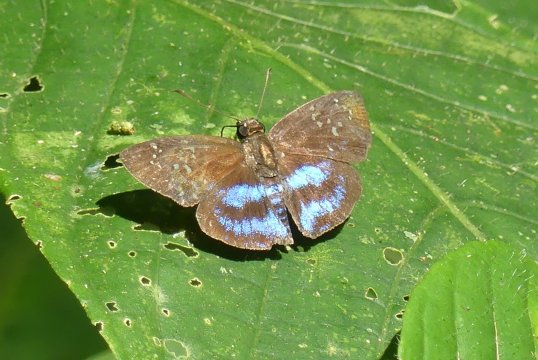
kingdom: Animalia
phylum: Arthropoda
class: Insecta
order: Lepidoptera
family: Hesperiidae
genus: Quadrus
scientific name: Quadrus contubernalis
